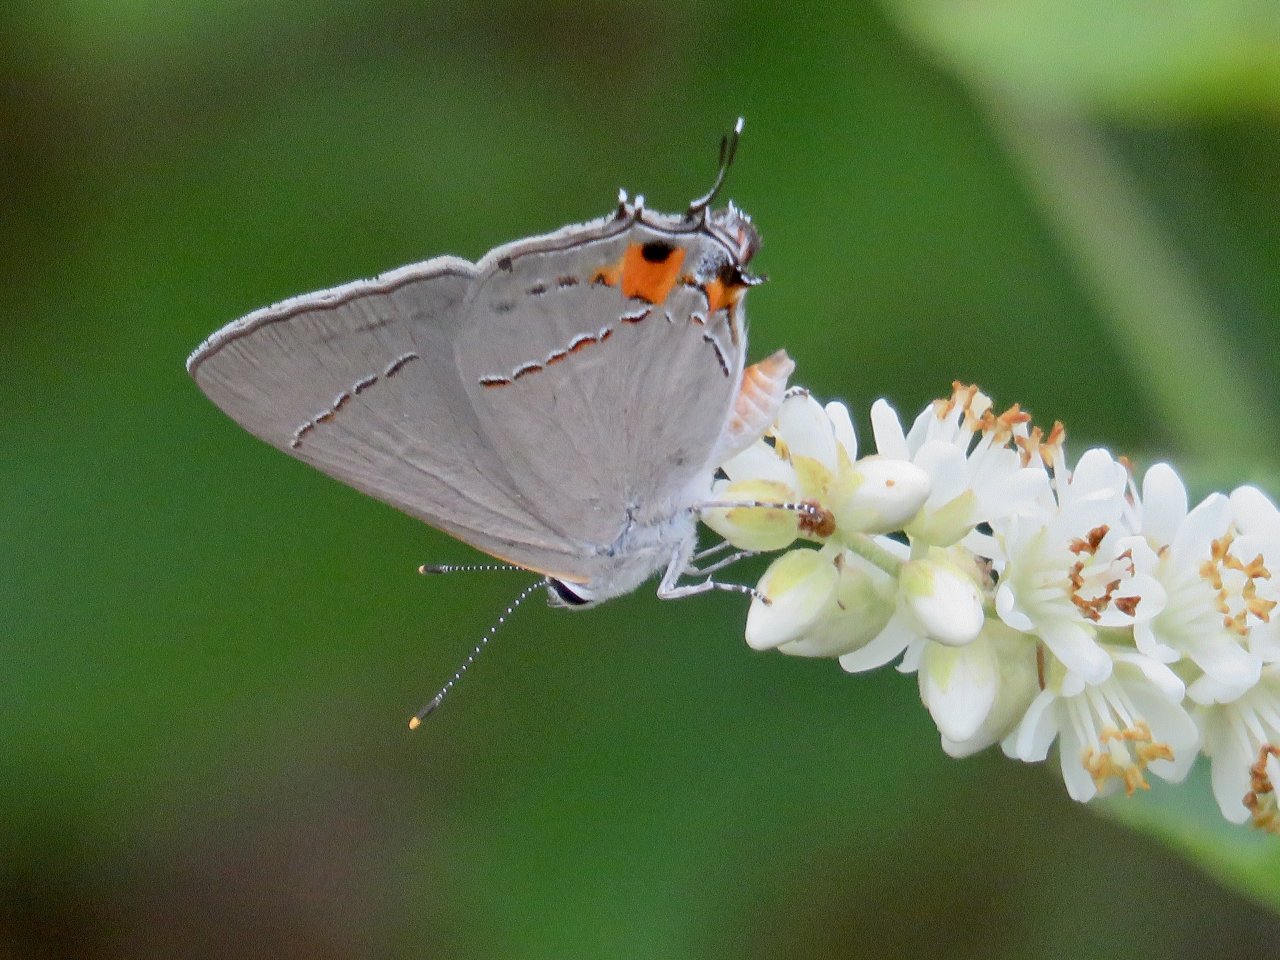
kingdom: Animalia
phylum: Arthropoda
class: Insecta
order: Lepidoptera
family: Lycaenidae
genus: Strymon
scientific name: Strymon melinus
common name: Gray Hairstreak
